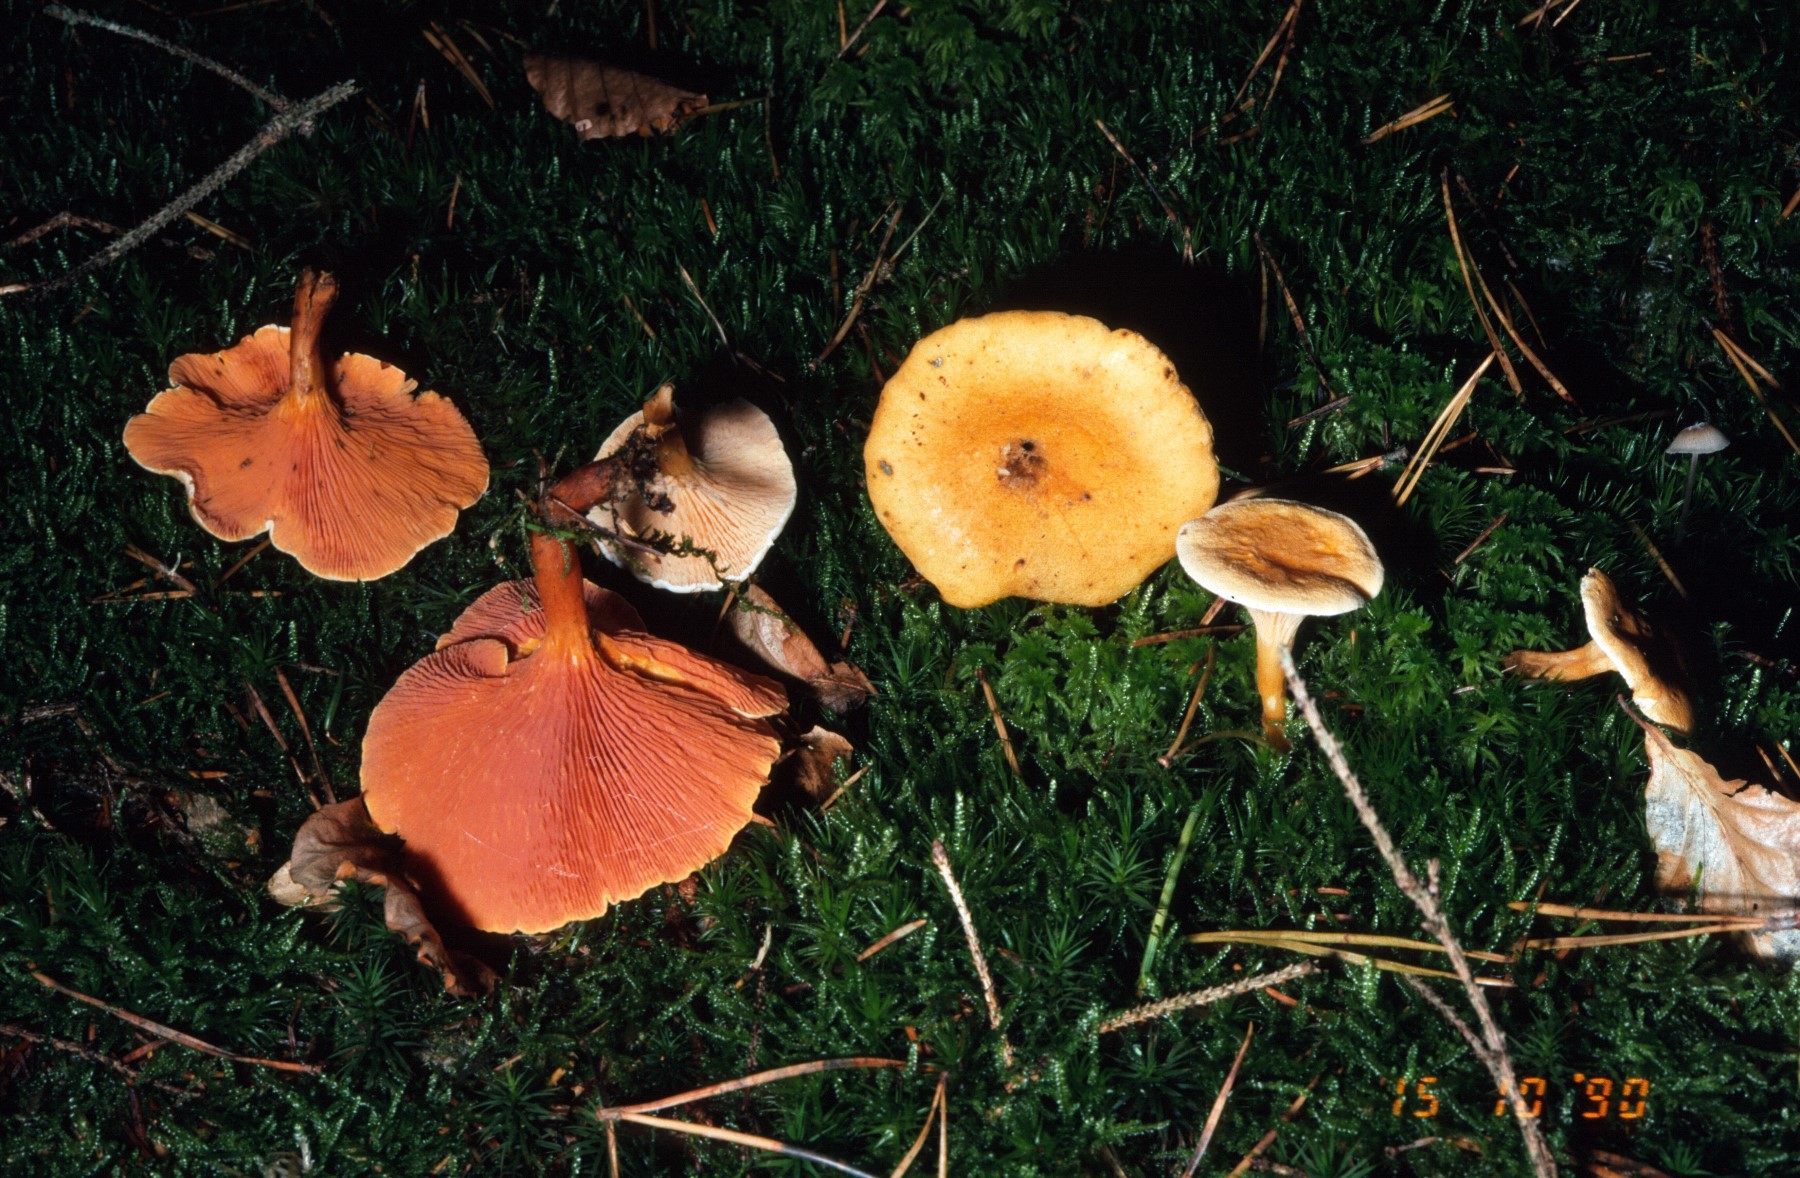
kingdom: Fungi
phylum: Basidiomycota
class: Agaricomycetes
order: Boletales
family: Hygrophoropsidaceae
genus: Hygrophoropsis
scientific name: Hygrophoropsis aurantiaca
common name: almindelig orangekantarel
